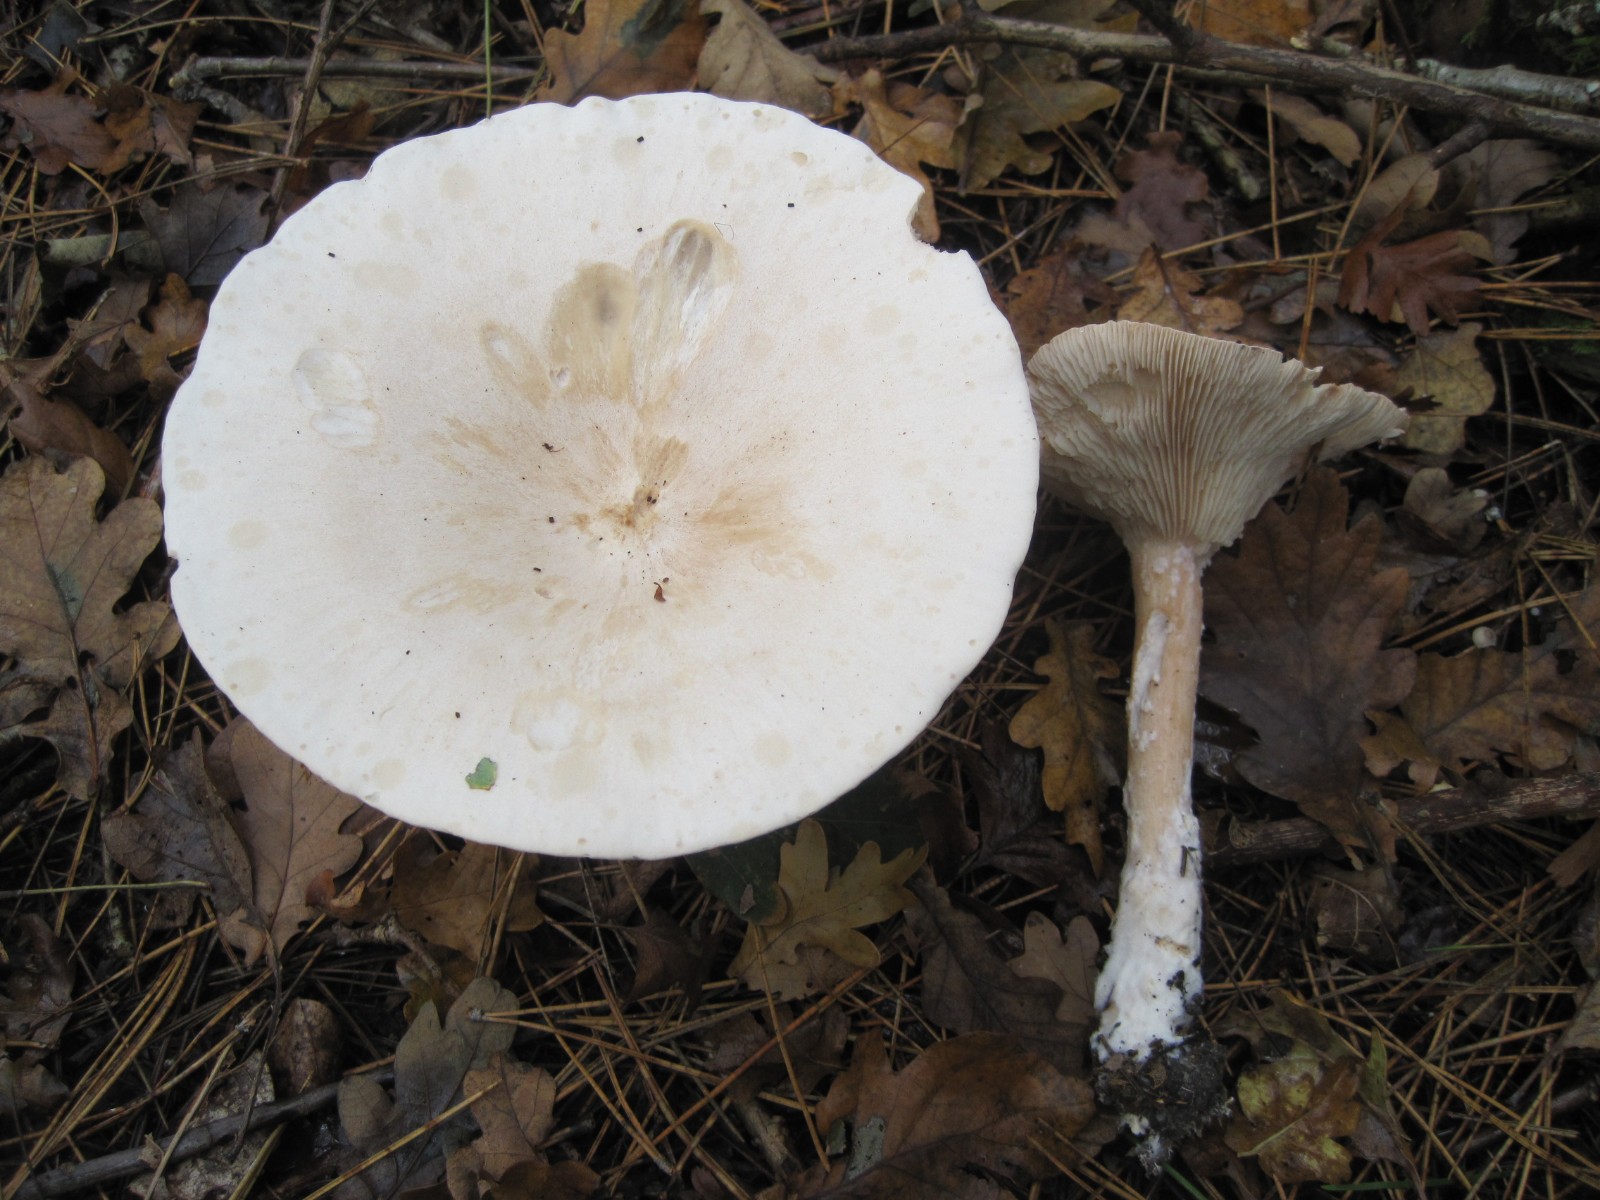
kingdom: Fungi
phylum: Basidiomycota
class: Agaricomycetes
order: Agaricales
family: Tricholomataceae
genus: Infundibulicybe
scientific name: Infundibulicybe geotropa
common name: stor tragthat
